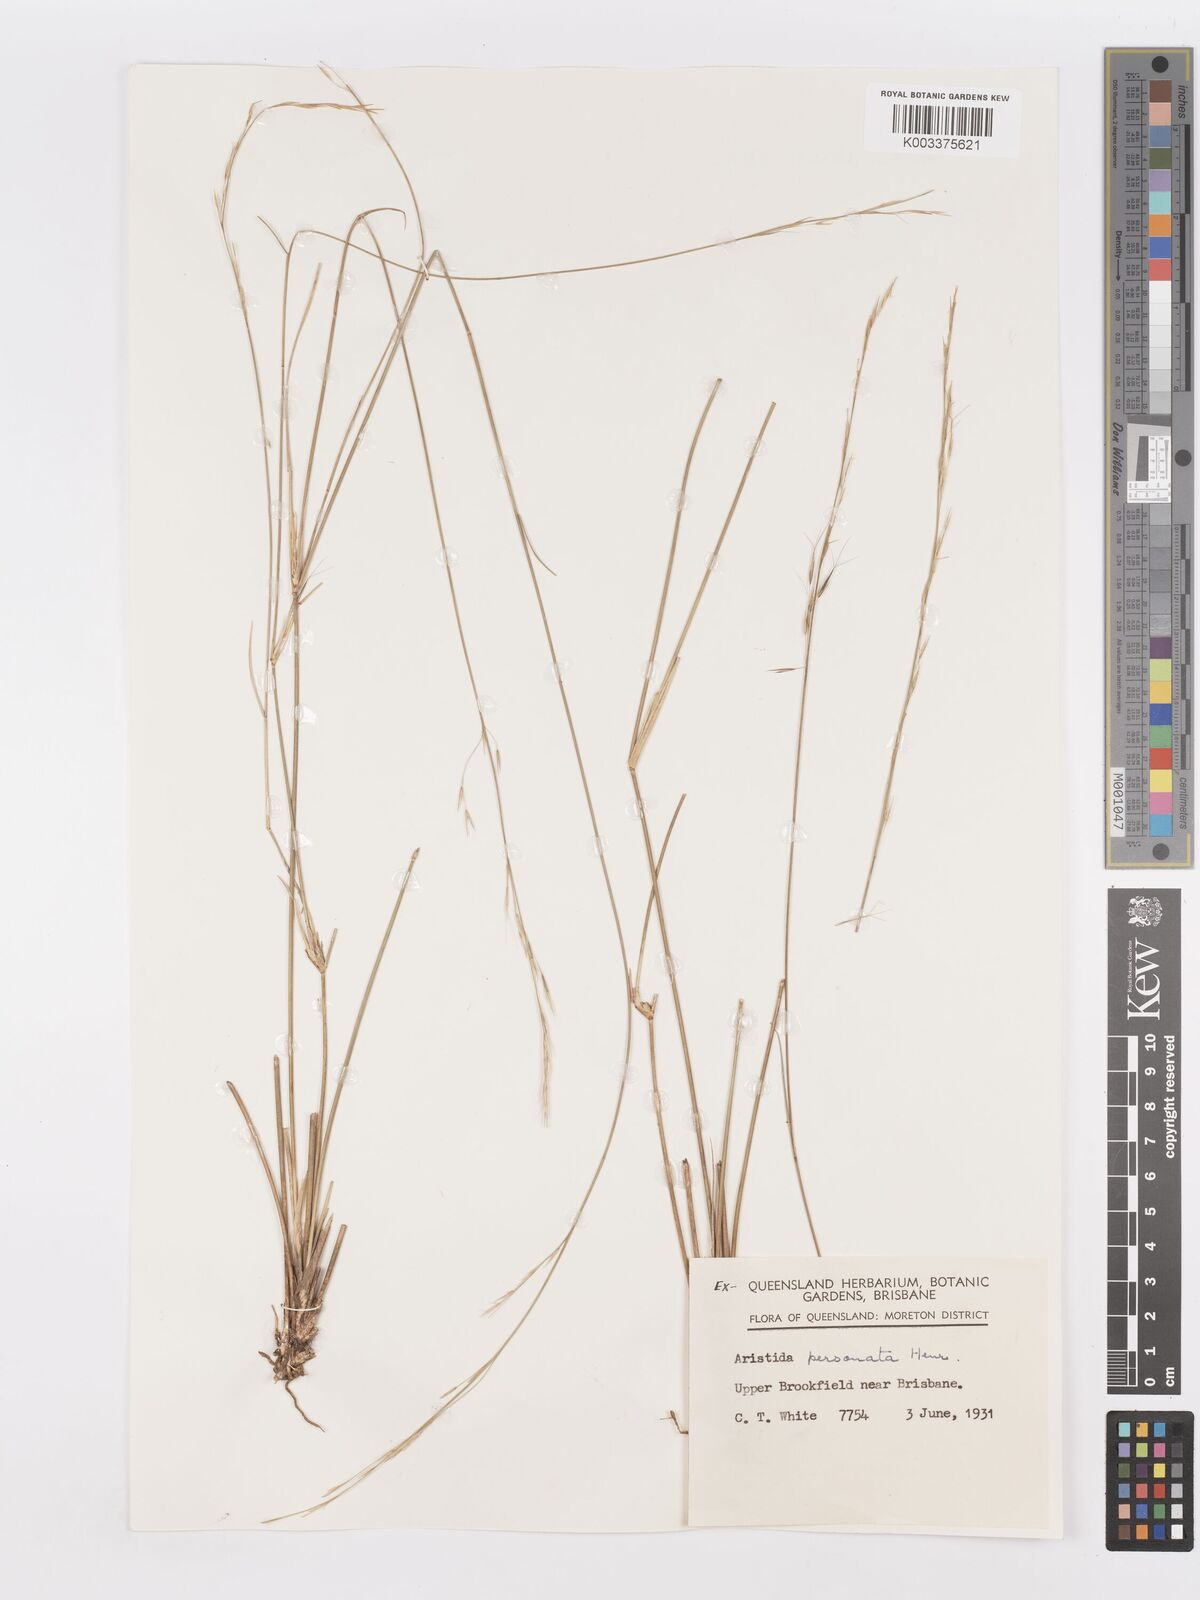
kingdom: Plantae
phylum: Tracheophyta
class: Liliopsida
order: Poales
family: Poaceae
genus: Aristida
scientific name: Aristida personata
